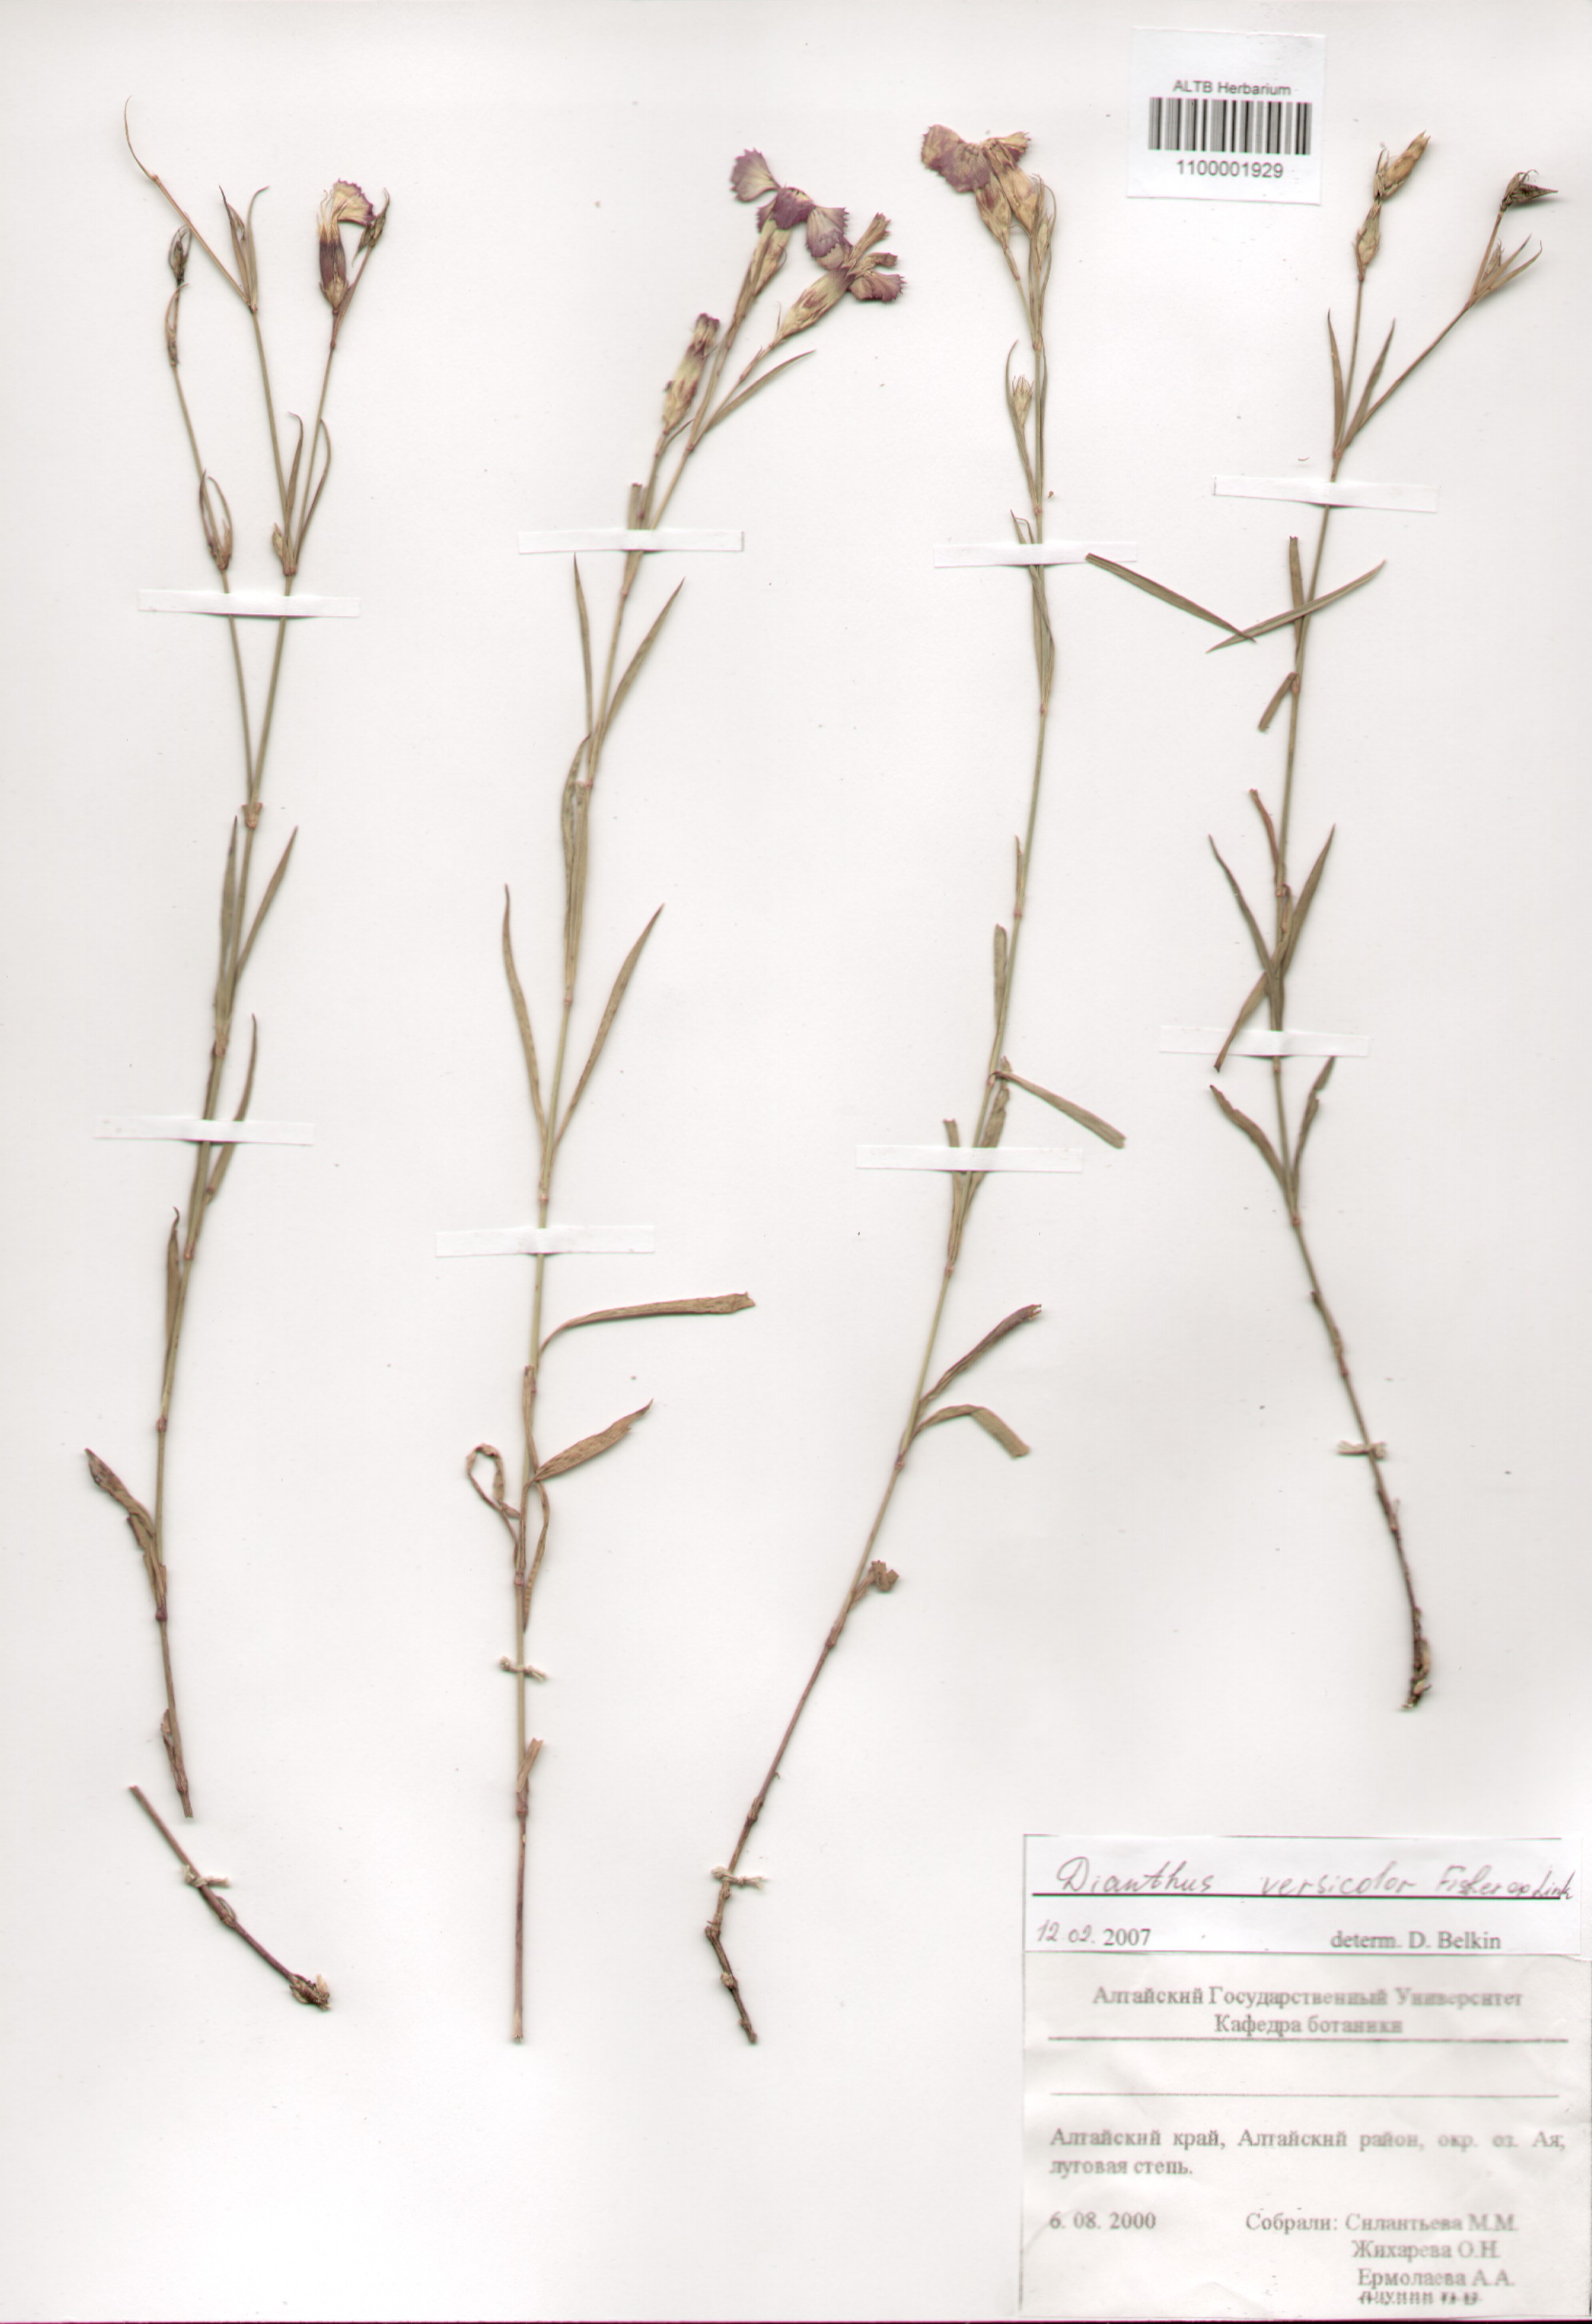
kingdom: Plantae
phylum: Tracheophyta
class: Magnoliopsida
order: Caryophyllales
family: Caryophyllaceae
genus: Dianthus
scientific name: Dianthus chinensis
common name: Rainbow pink
